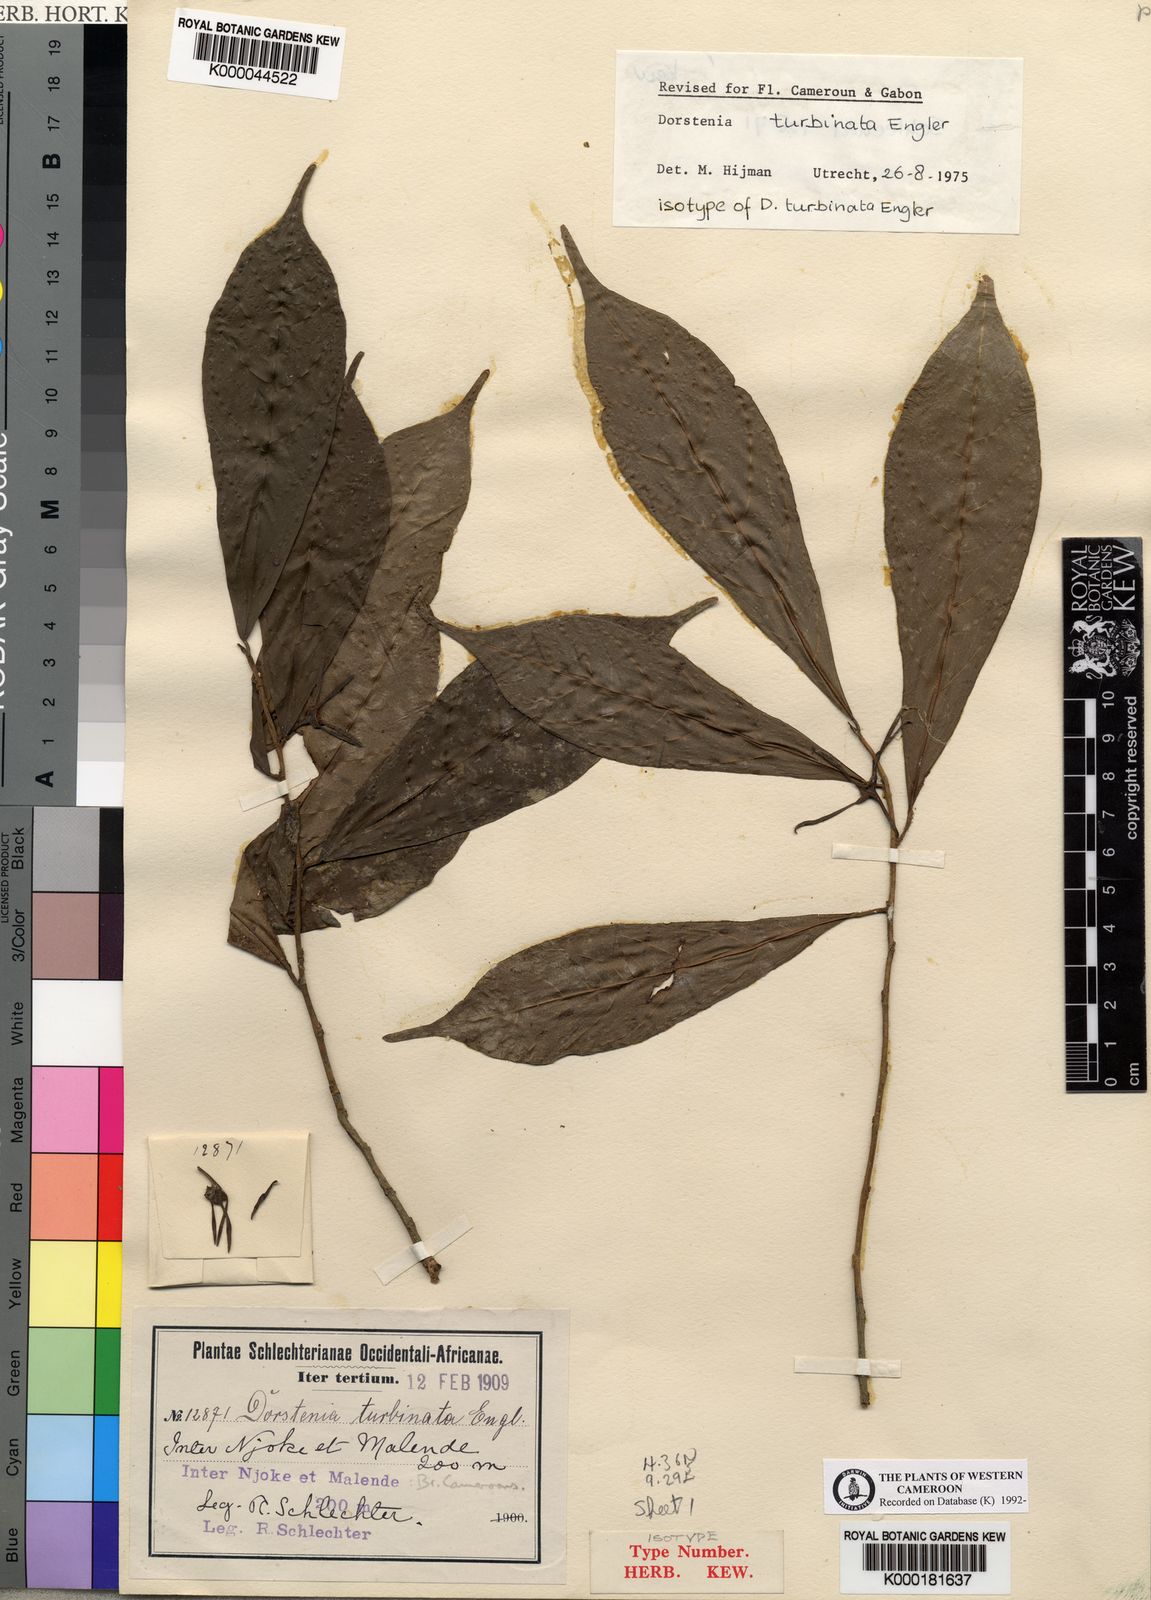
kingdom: Plantae
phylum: Tracheophyta
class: Magnoliopsida
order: Rosales
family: Moraceae
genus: Hijmania
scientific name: Hijmania turbinata
